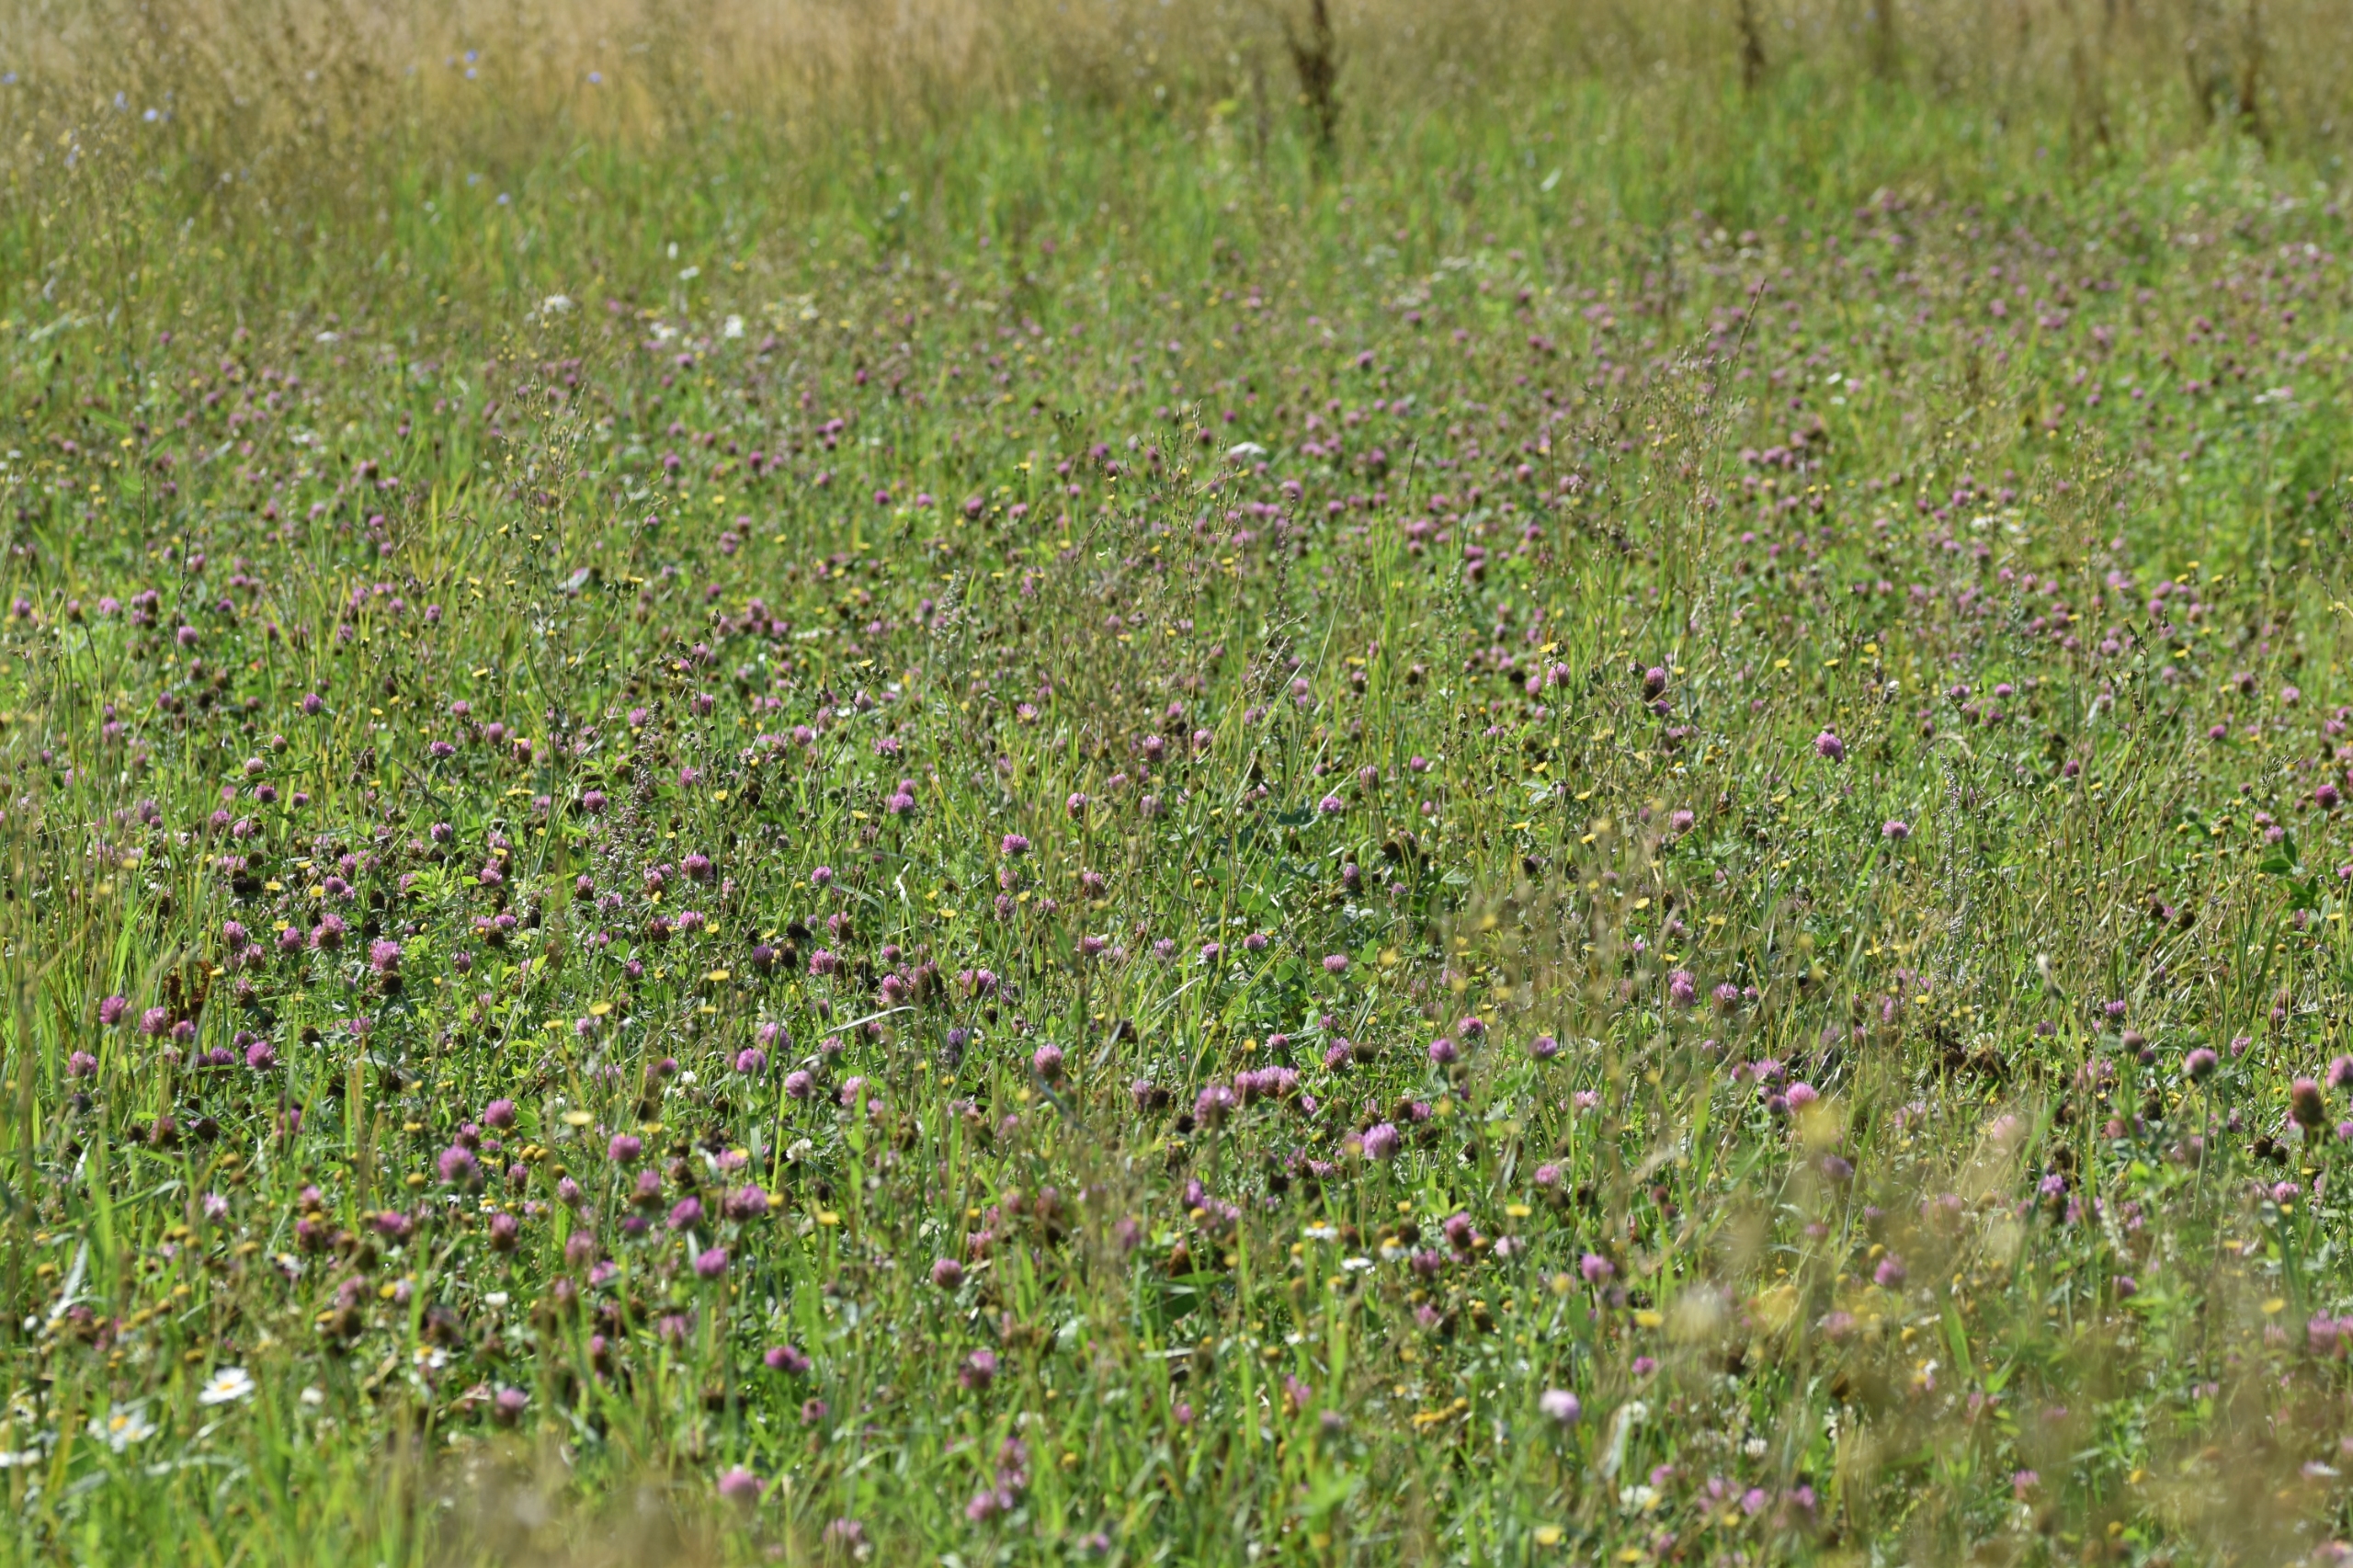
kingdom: Plantae
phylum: Tracheophyta
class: Magnoliopsida
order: Fabales
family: Fabaceae
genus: Trifolium
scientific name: Trifolium pratense
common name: Rød-kløver
